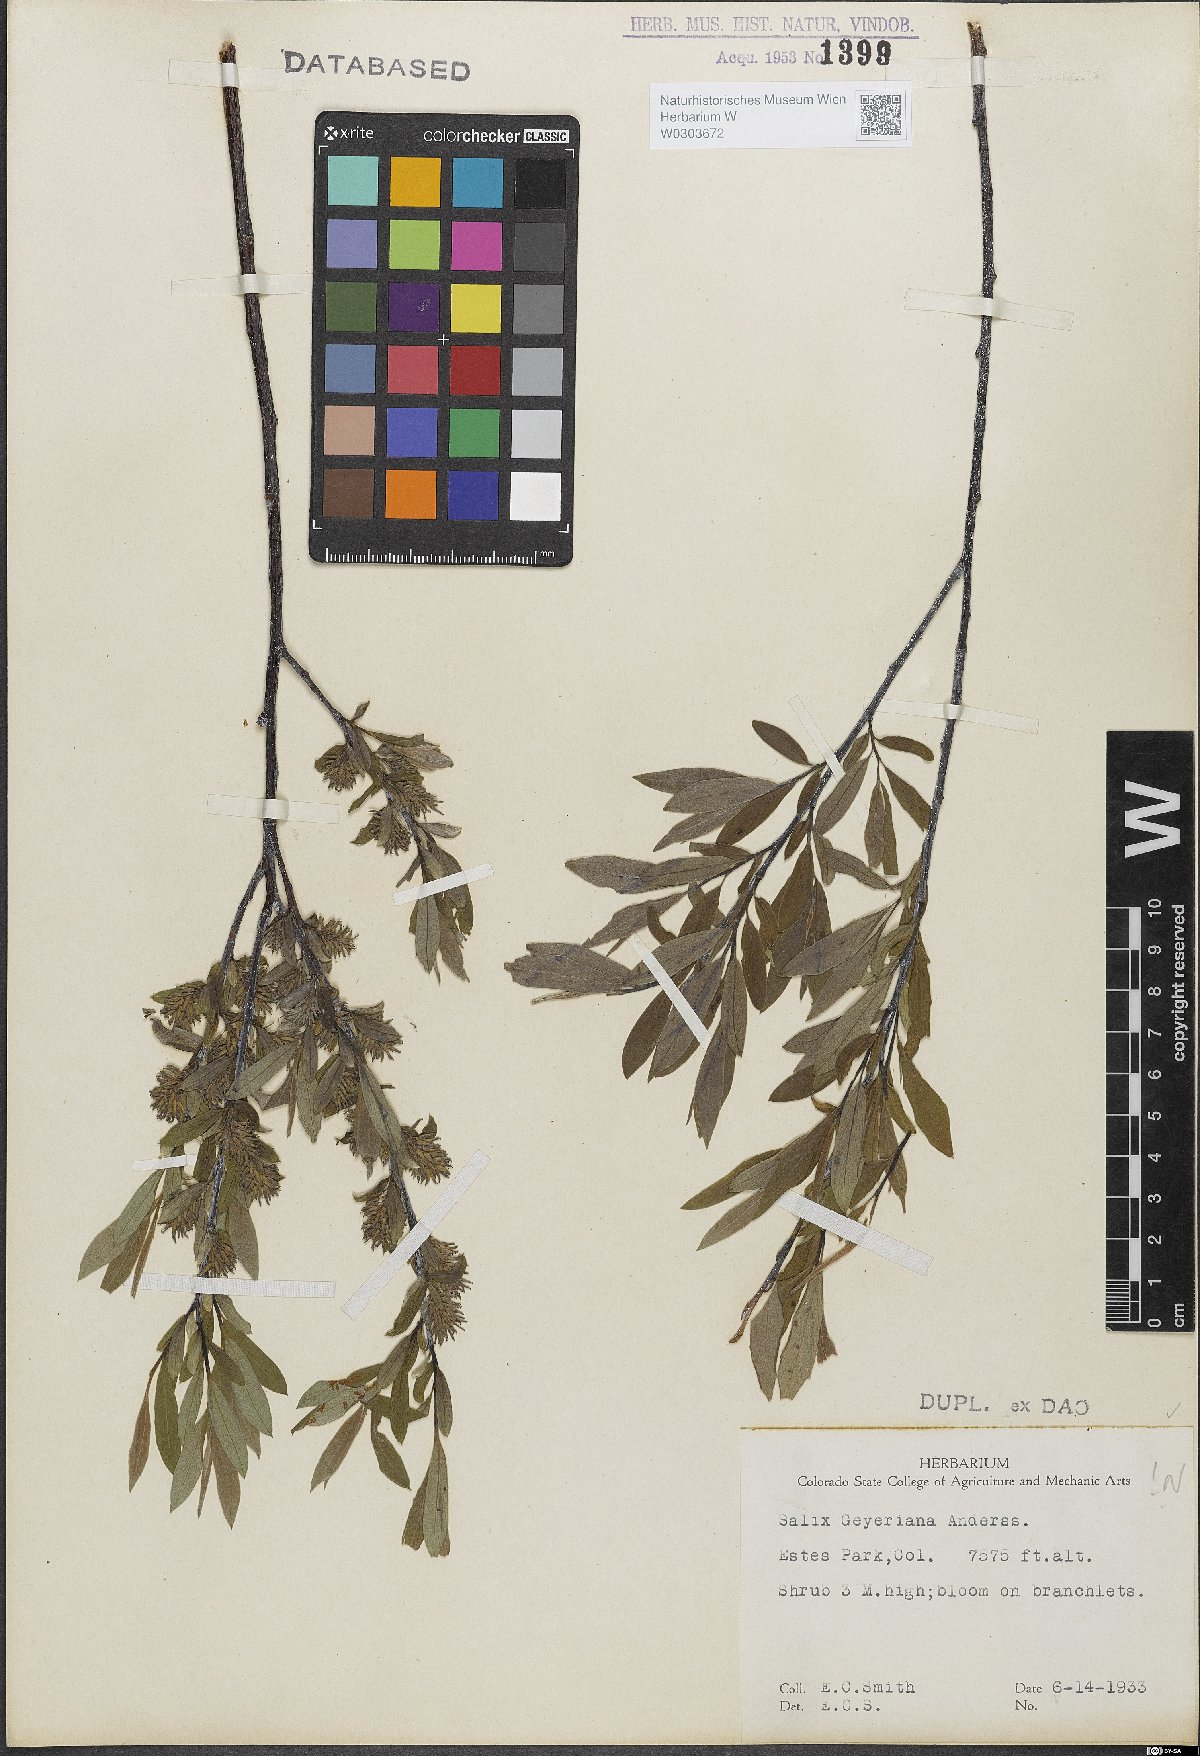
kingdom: Plantae
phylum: Tracheophyta
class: Magnoliopsida
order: Malpighiales
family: Salicaceae
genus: Salix
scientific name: Salix geyeriana
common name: Geyer's willow
